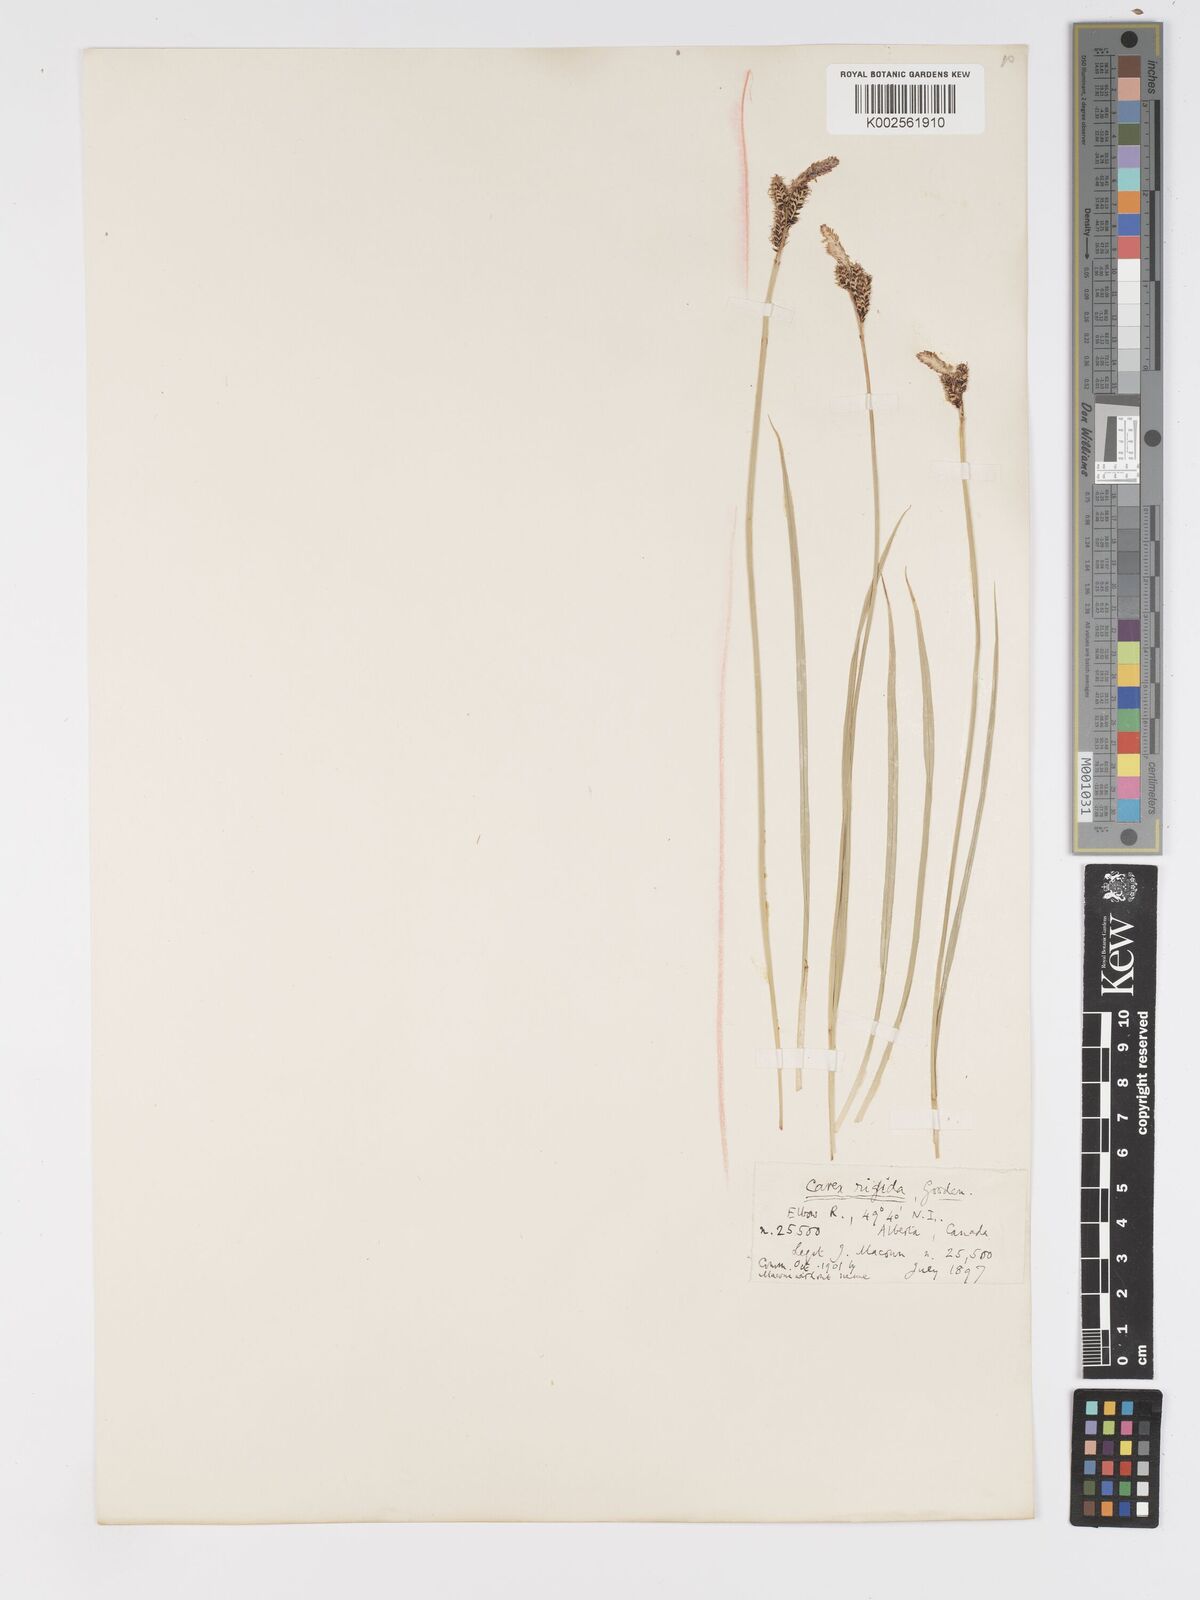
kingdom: Plantae
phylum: Tracheophyta
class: Liliopsida
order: Poales
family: Cyperaceae
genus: Carex
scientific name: Carex bigelowii
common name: Stiff sedge
